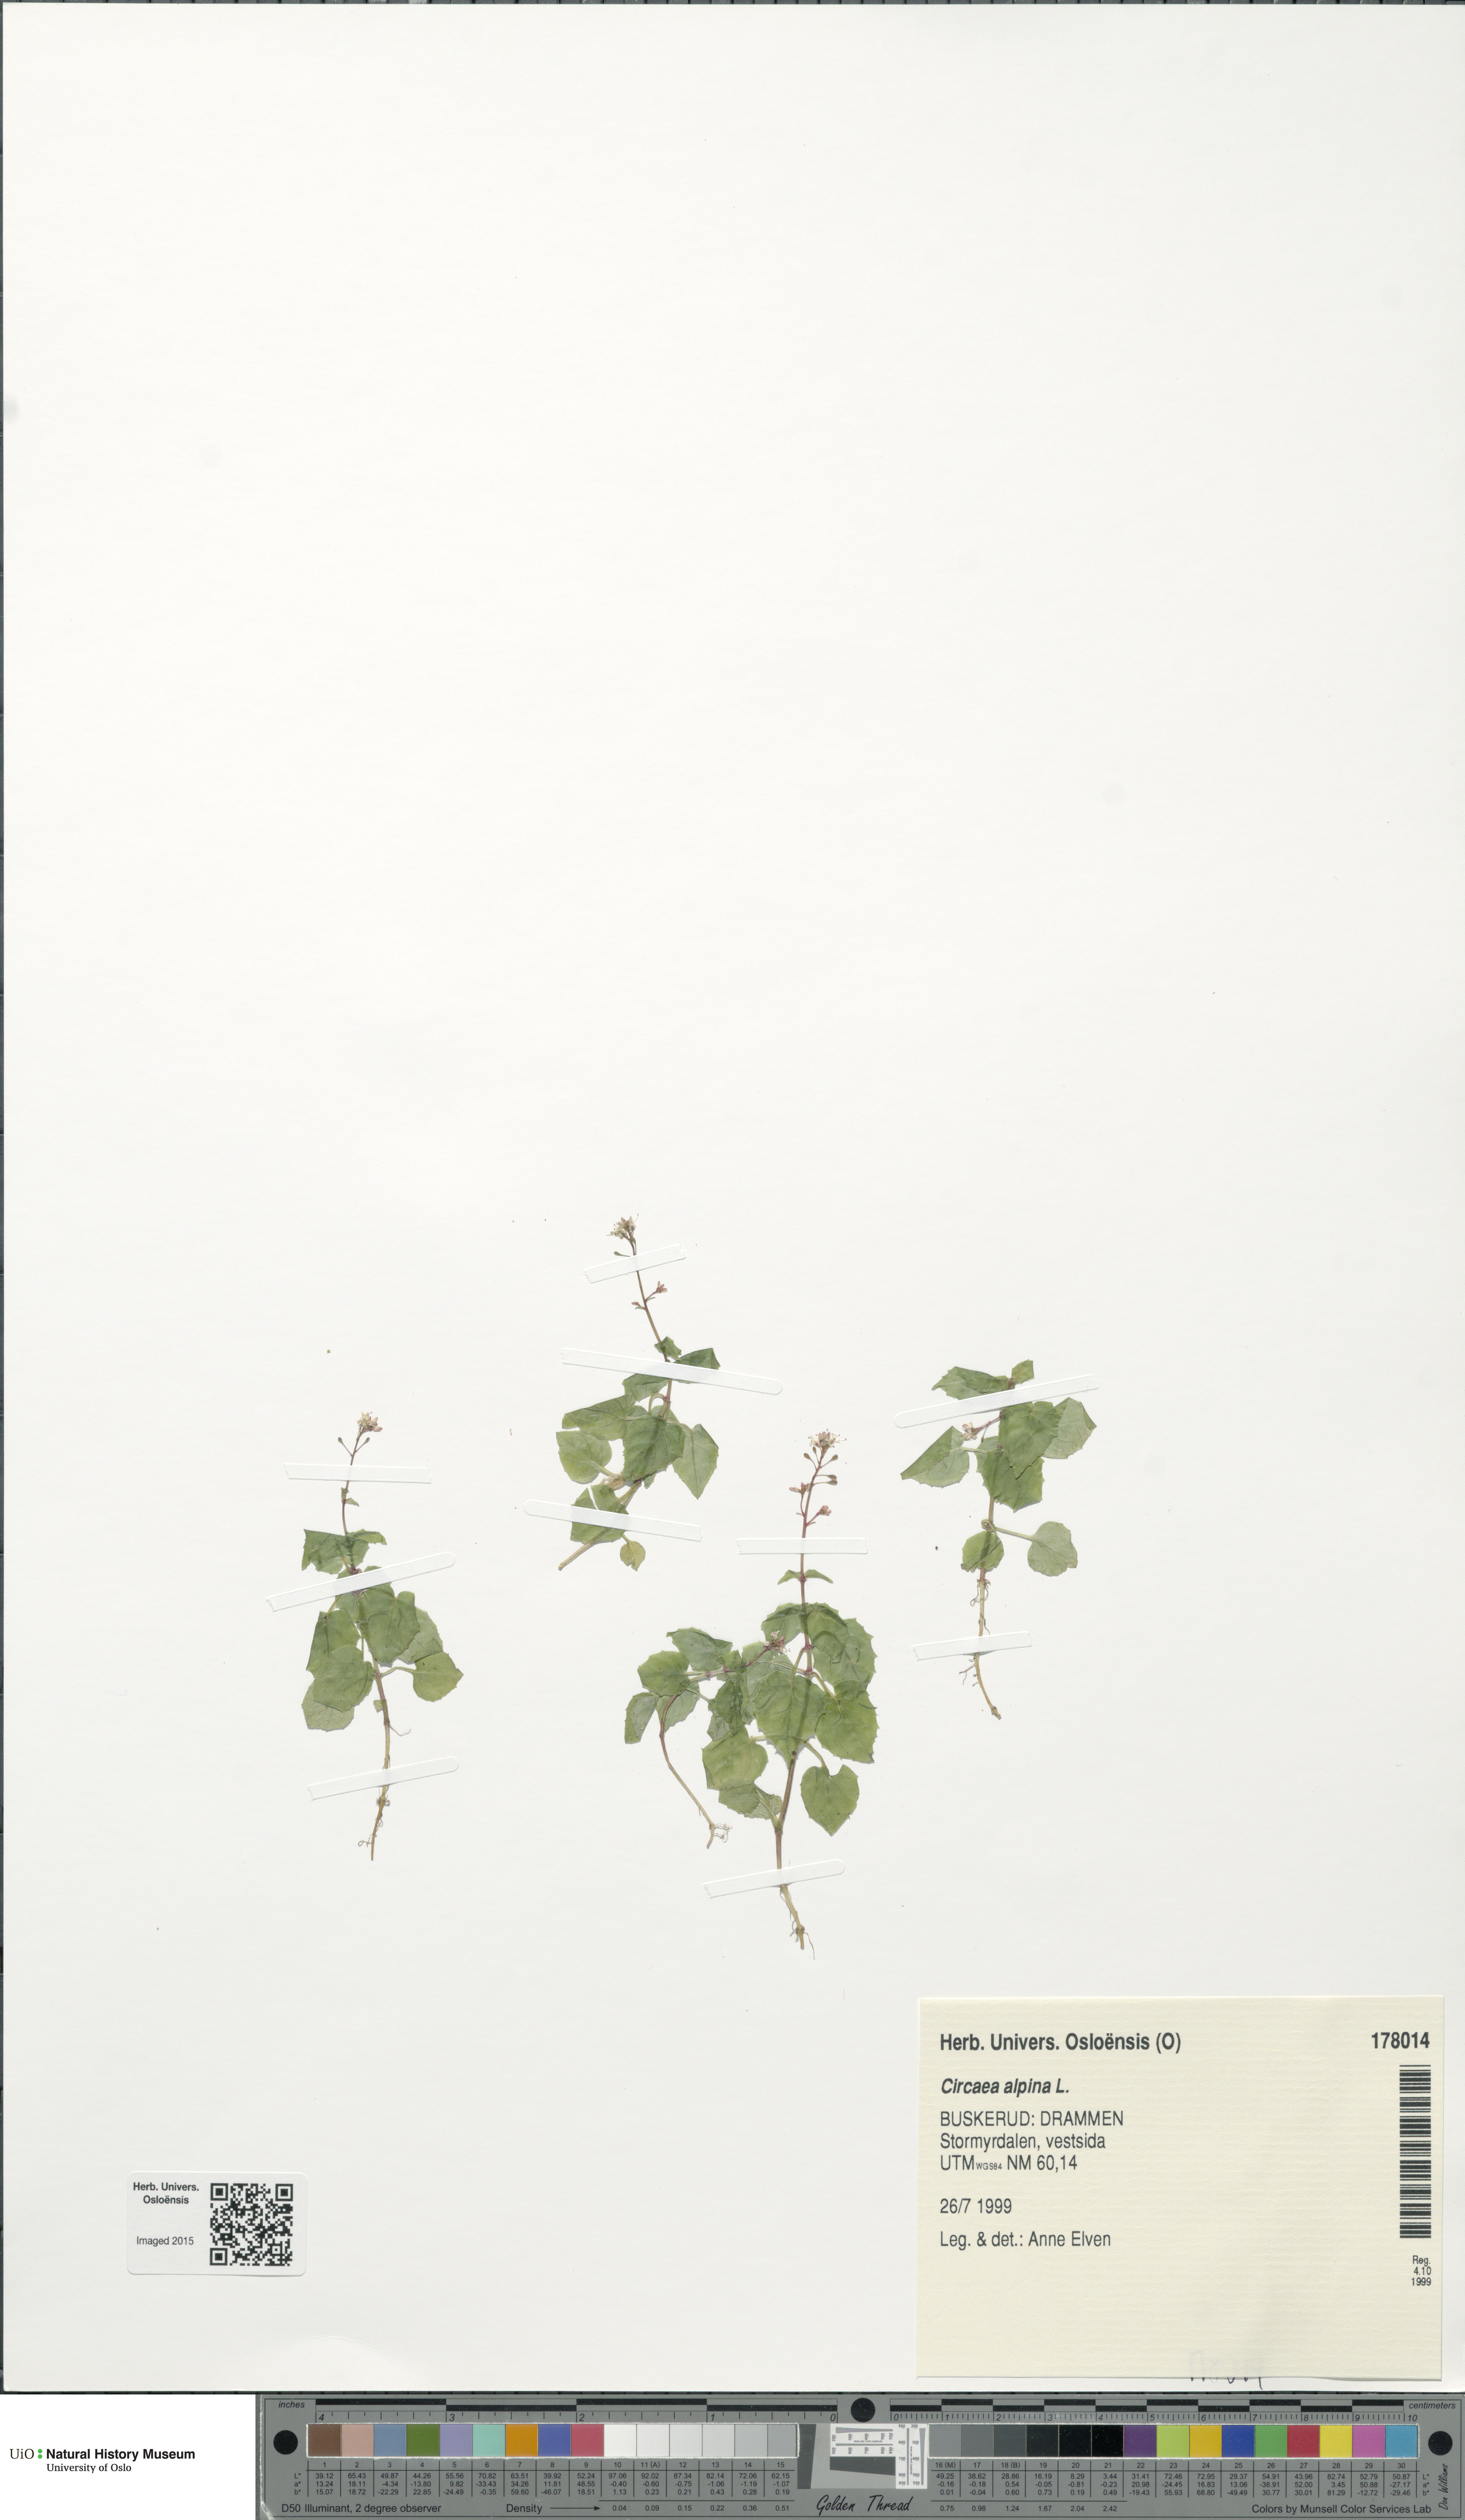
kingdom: Plantae
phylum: Tracheophyta
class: Magnoliopsida
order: Myrtales
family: Onagraceae
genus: Circaea
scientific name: Circaea alpina
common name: Alpine enchanter's-nightshade
